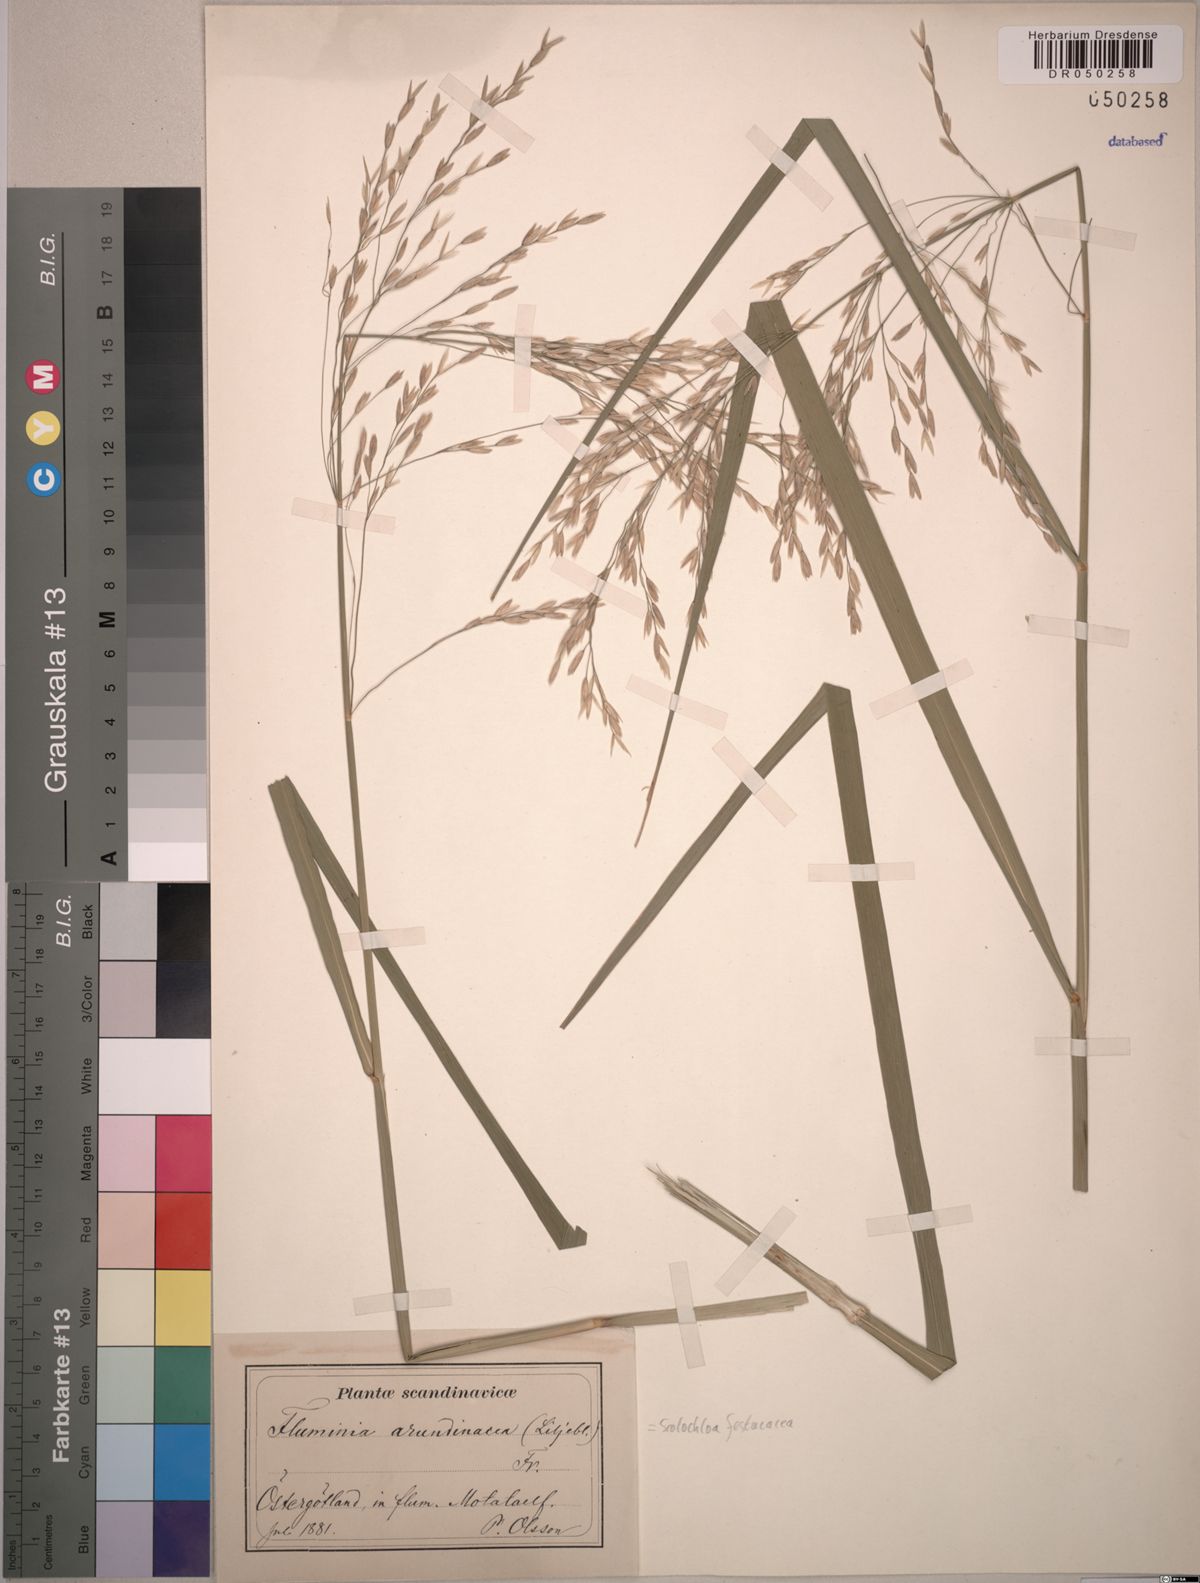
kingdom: Plantae
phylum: Tracheophyta
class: Liliopsida
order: Poales
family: Poaceae
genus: Scolochloa
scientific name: Scolochloa festucacea
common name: Common rivergrass
